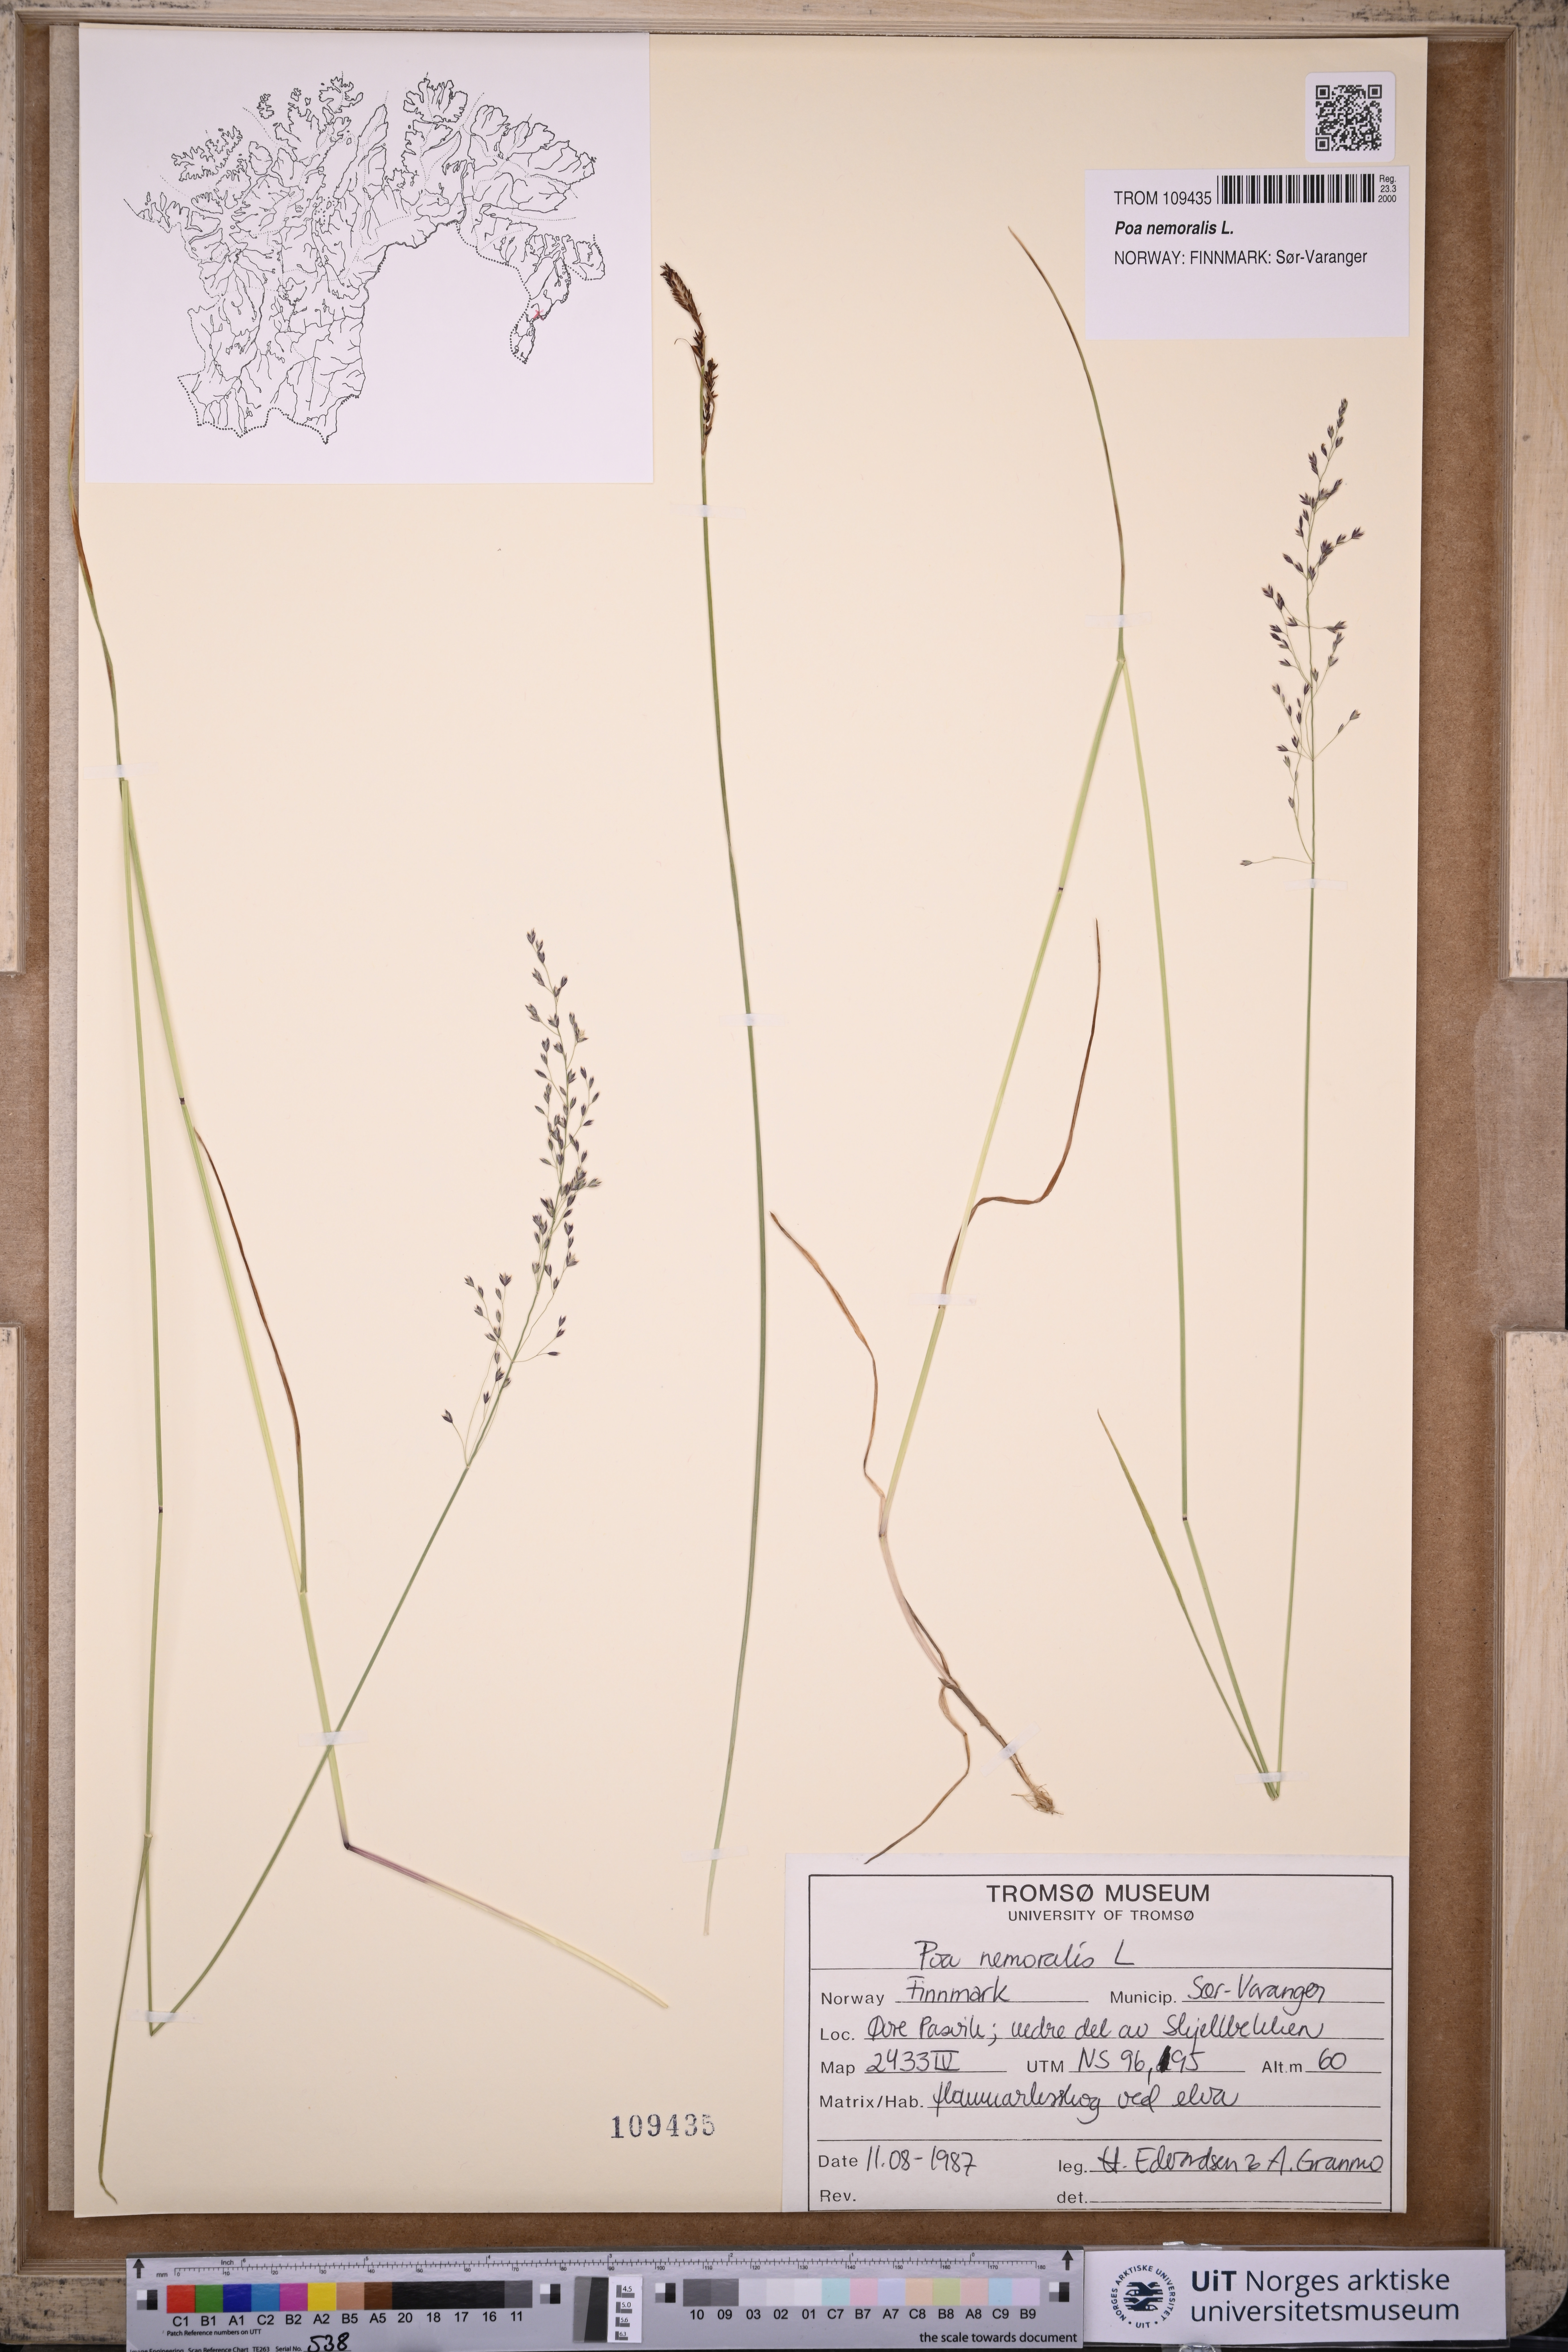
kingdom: Plantae
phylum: Tracheophyta
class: Liliopsida
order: Poales
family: Poaceae
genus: Poa
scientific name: Poa nemoralis
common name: Wood bluegrass
